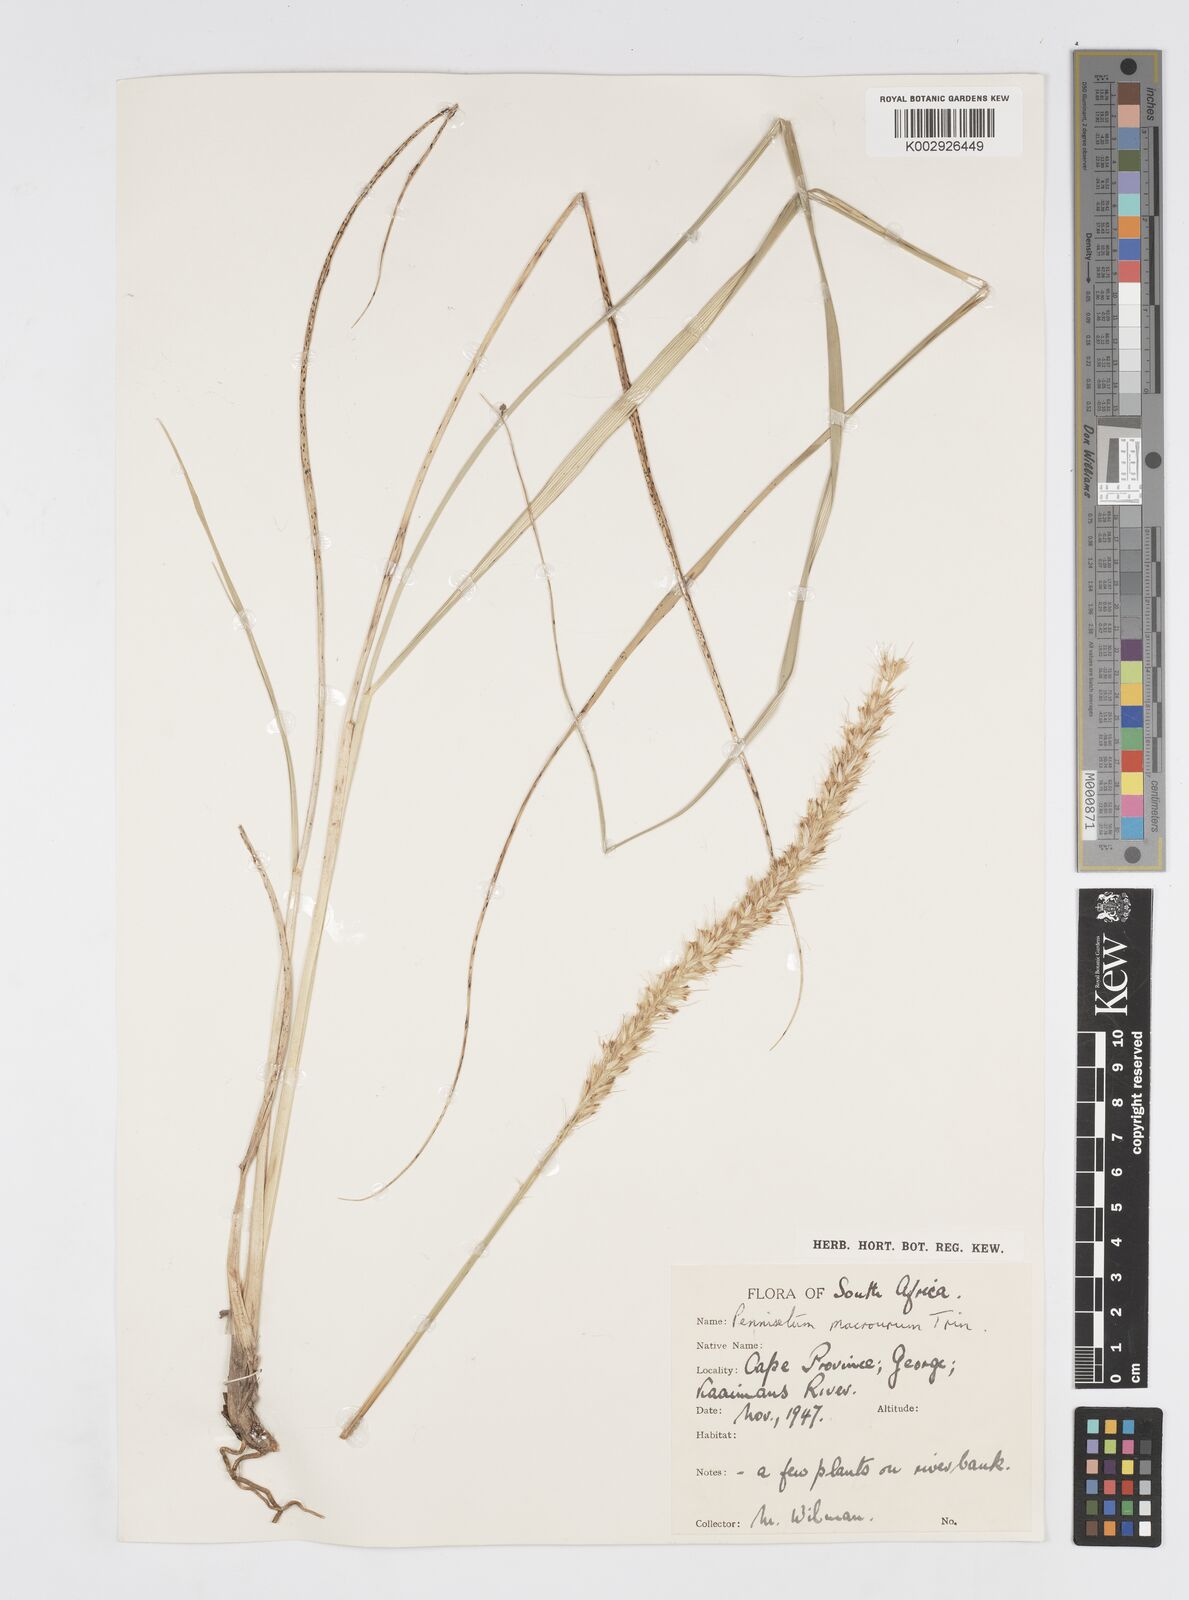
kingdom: Plantae
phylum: Tracheophyta
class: Liliopsida
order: Poales
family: Poaceae
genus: Cenchrus
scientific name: Cenchrus purpureus
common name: Elephant grass
